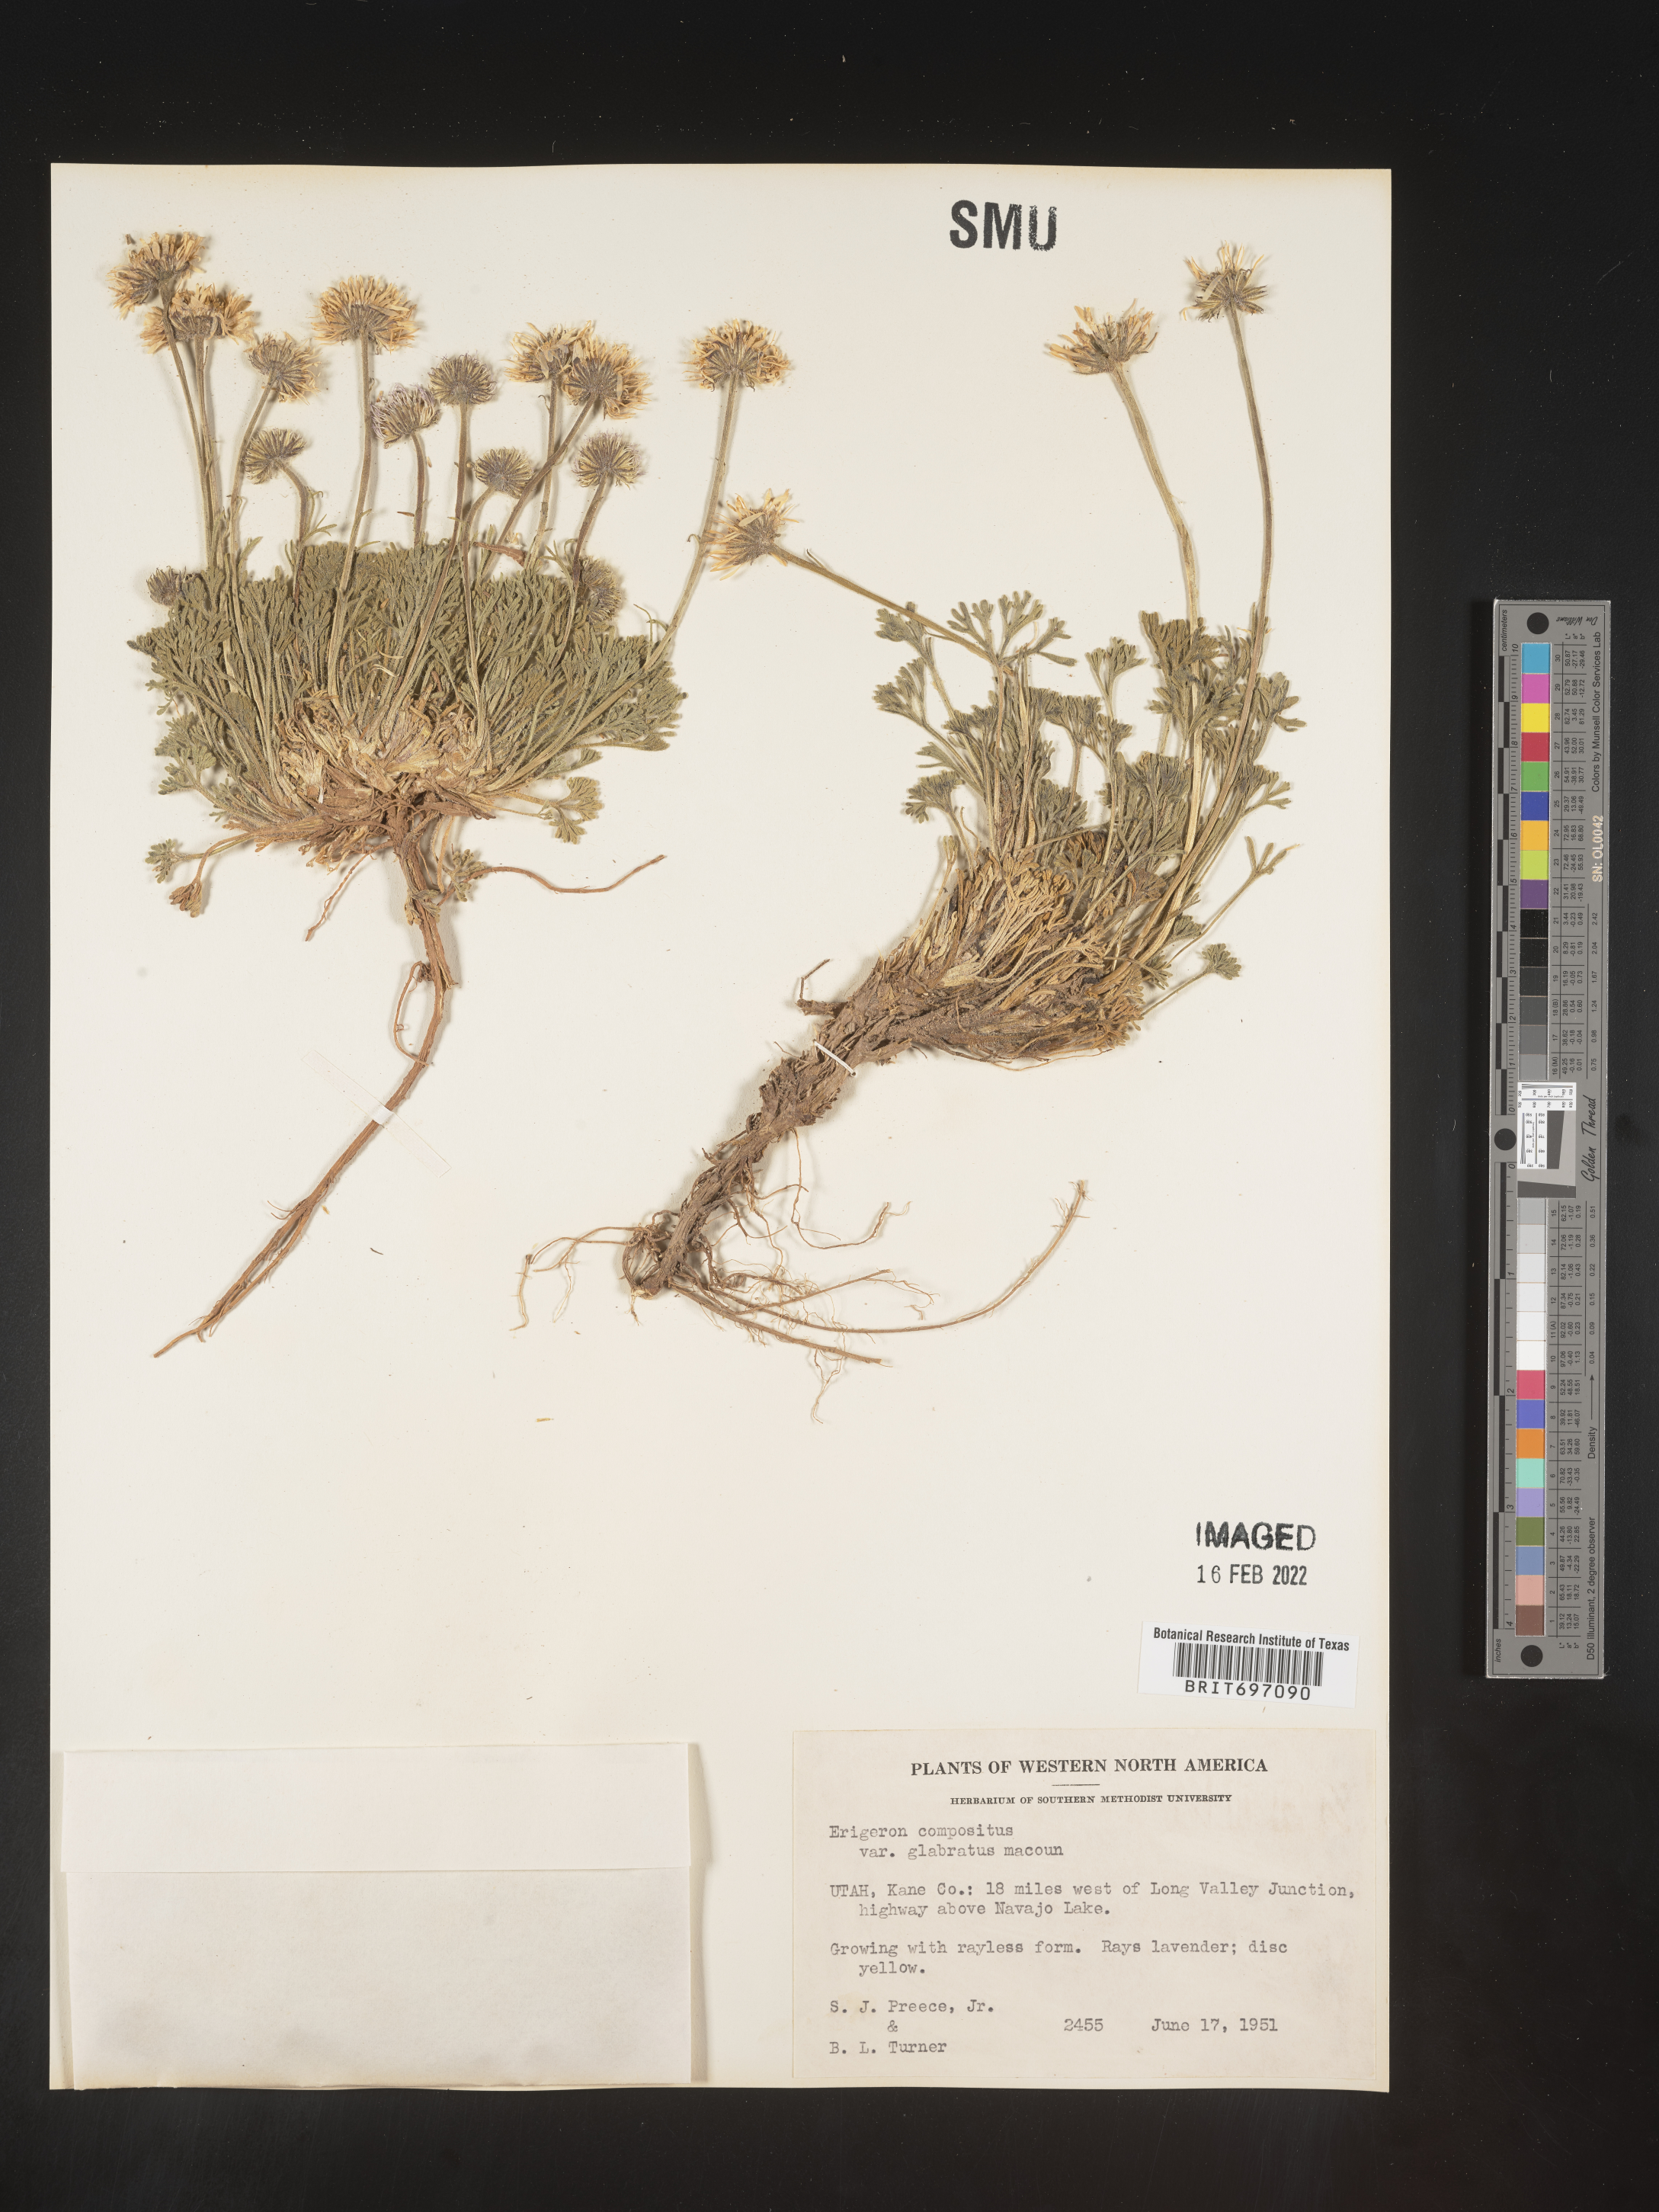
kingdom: Plantae
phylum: Tracheophyta
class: Magnoliopsida
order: Asterales
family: Asteraceae
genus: Erigeron
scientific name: Erigeron compositus
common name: Dwarf mountain fleabane
